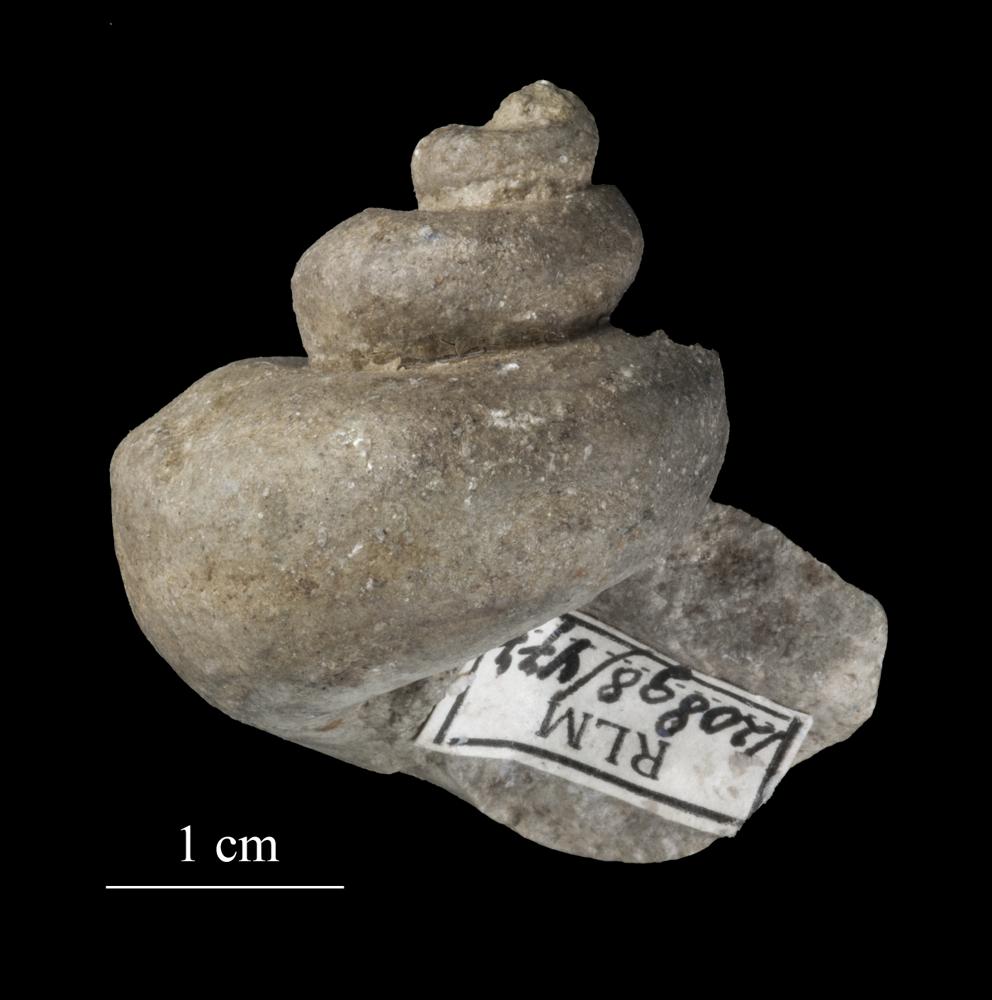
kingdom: Animalia
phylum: Mollusca
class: Gastropoda
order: Pleurotomariida
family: Pleurotomariidae
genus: Pleurotomaria
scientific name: Pleurotomaria
